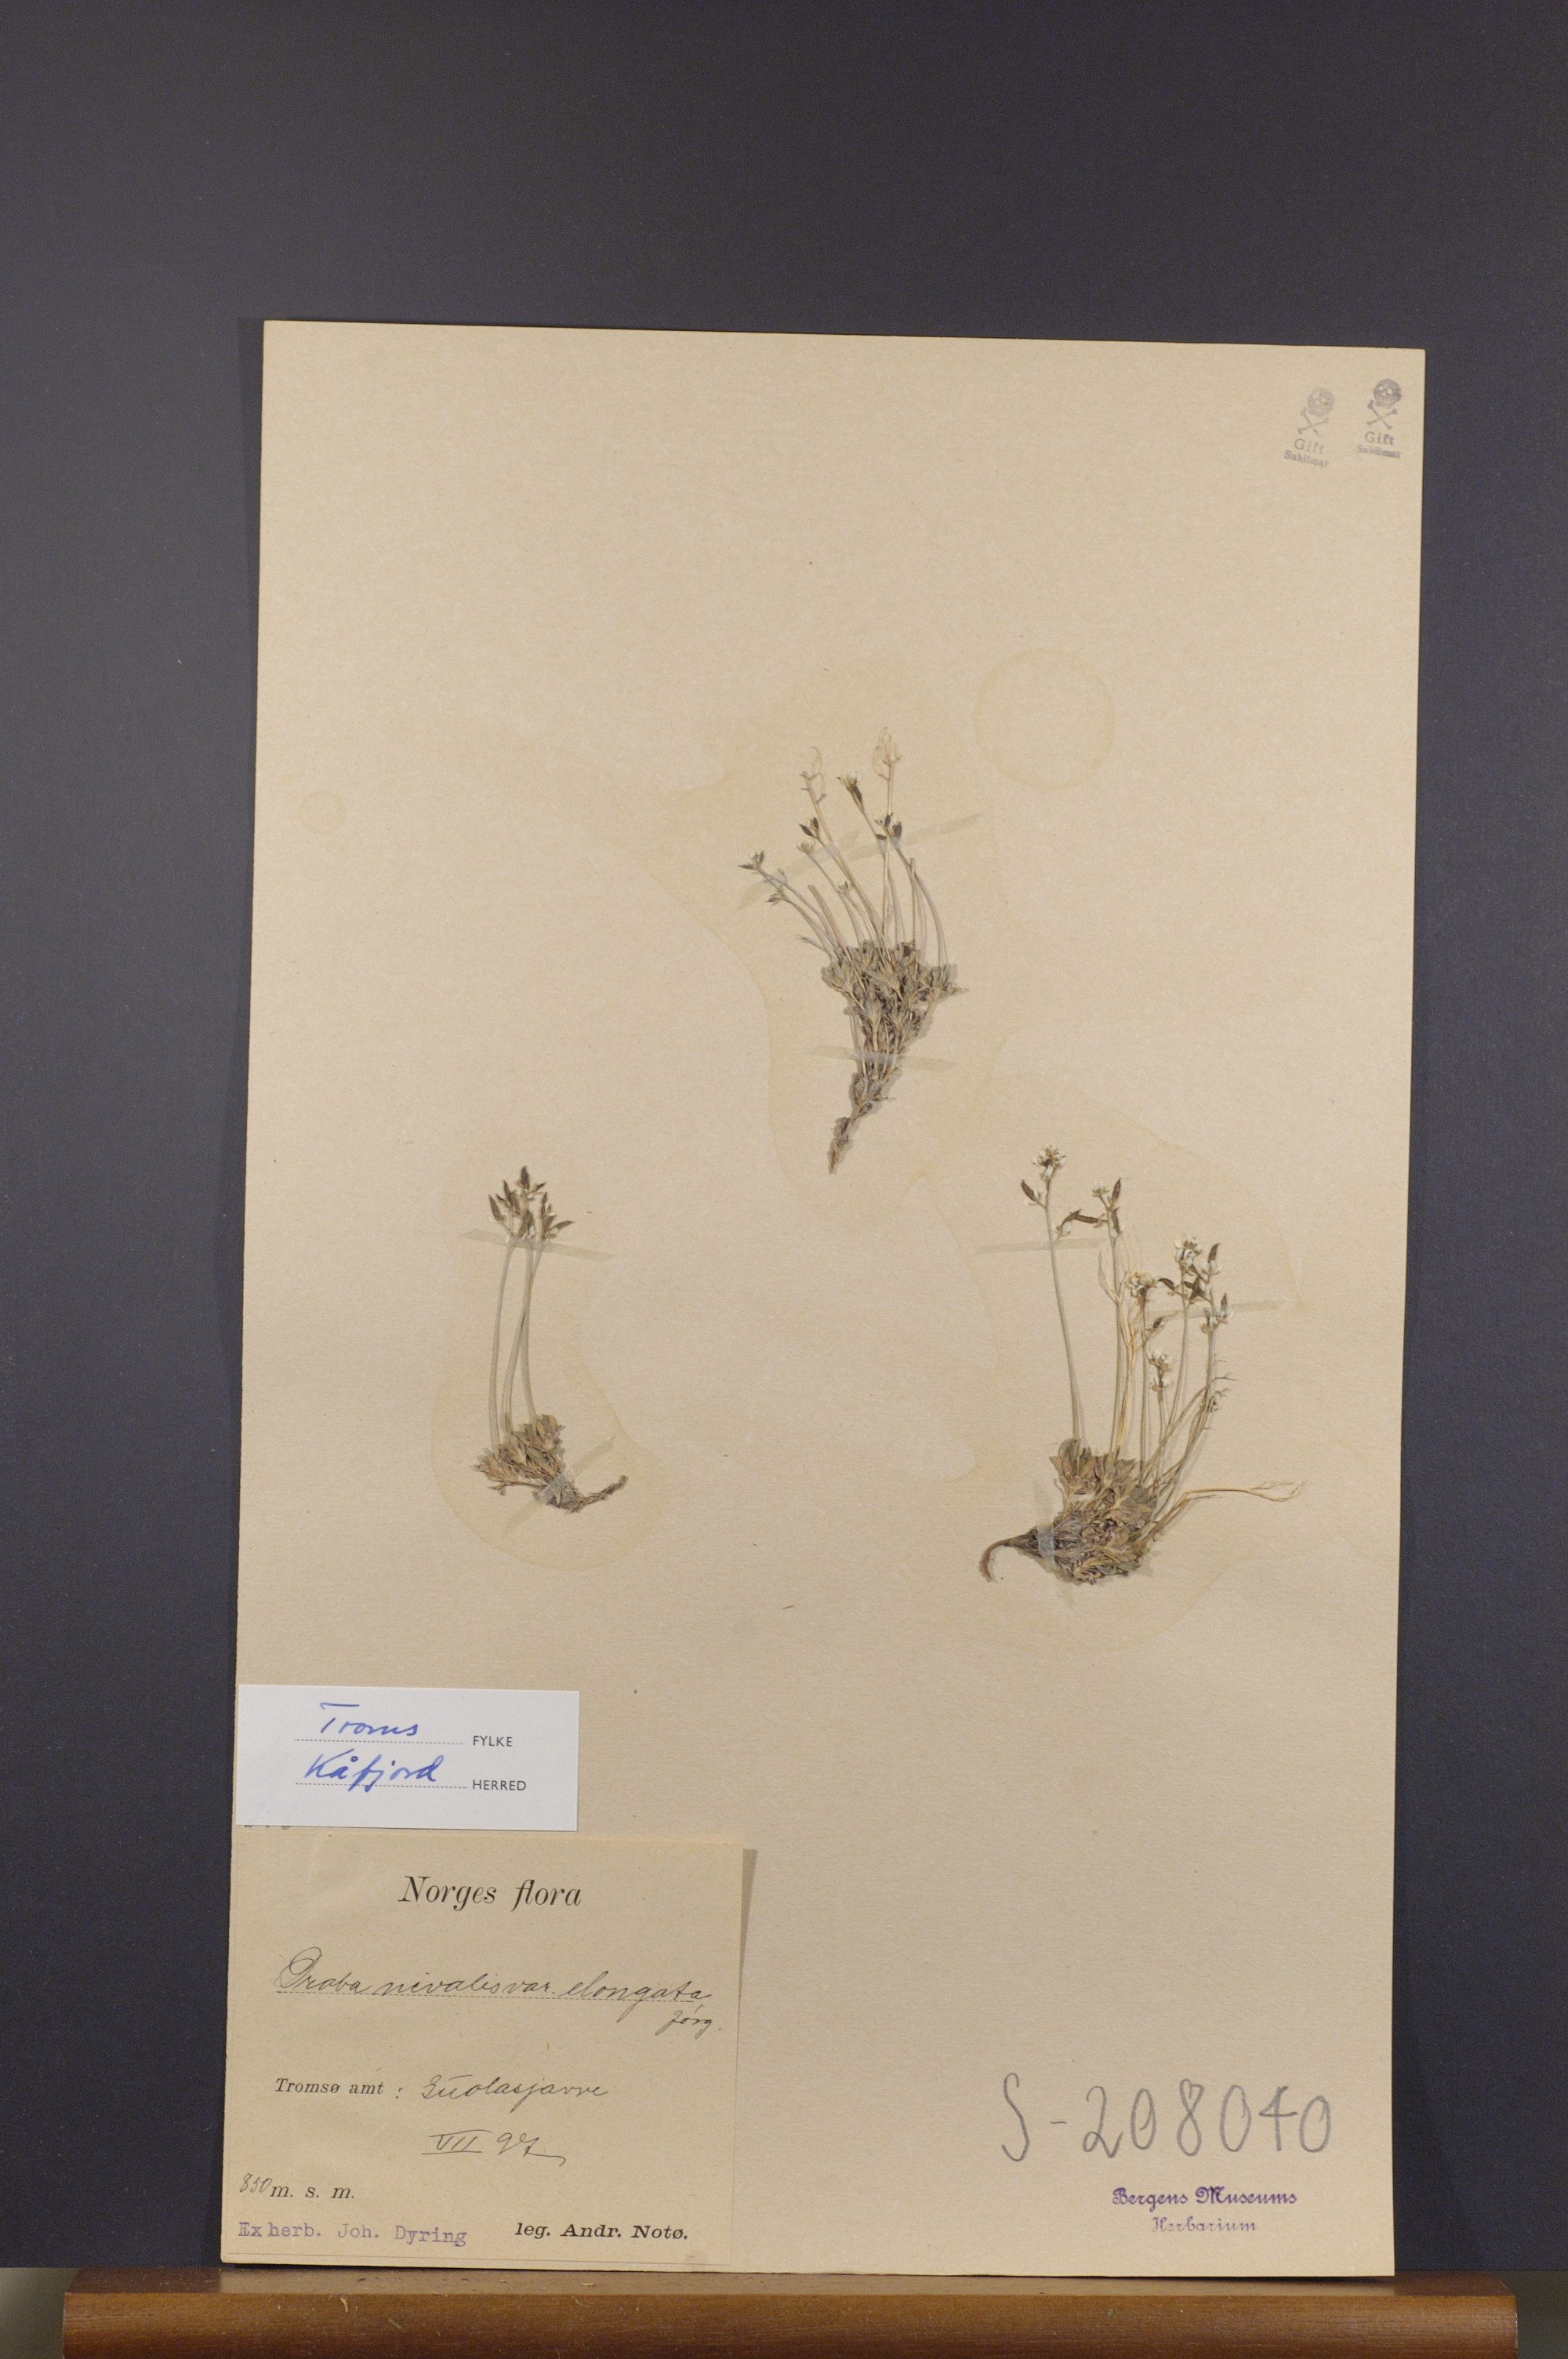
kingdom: Plantae
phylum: Tracheophyta
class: Magnoliopsida
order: Brassicales
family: Brassicaceae
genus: Draba
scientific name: Draba nivalis
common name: Snow draba
